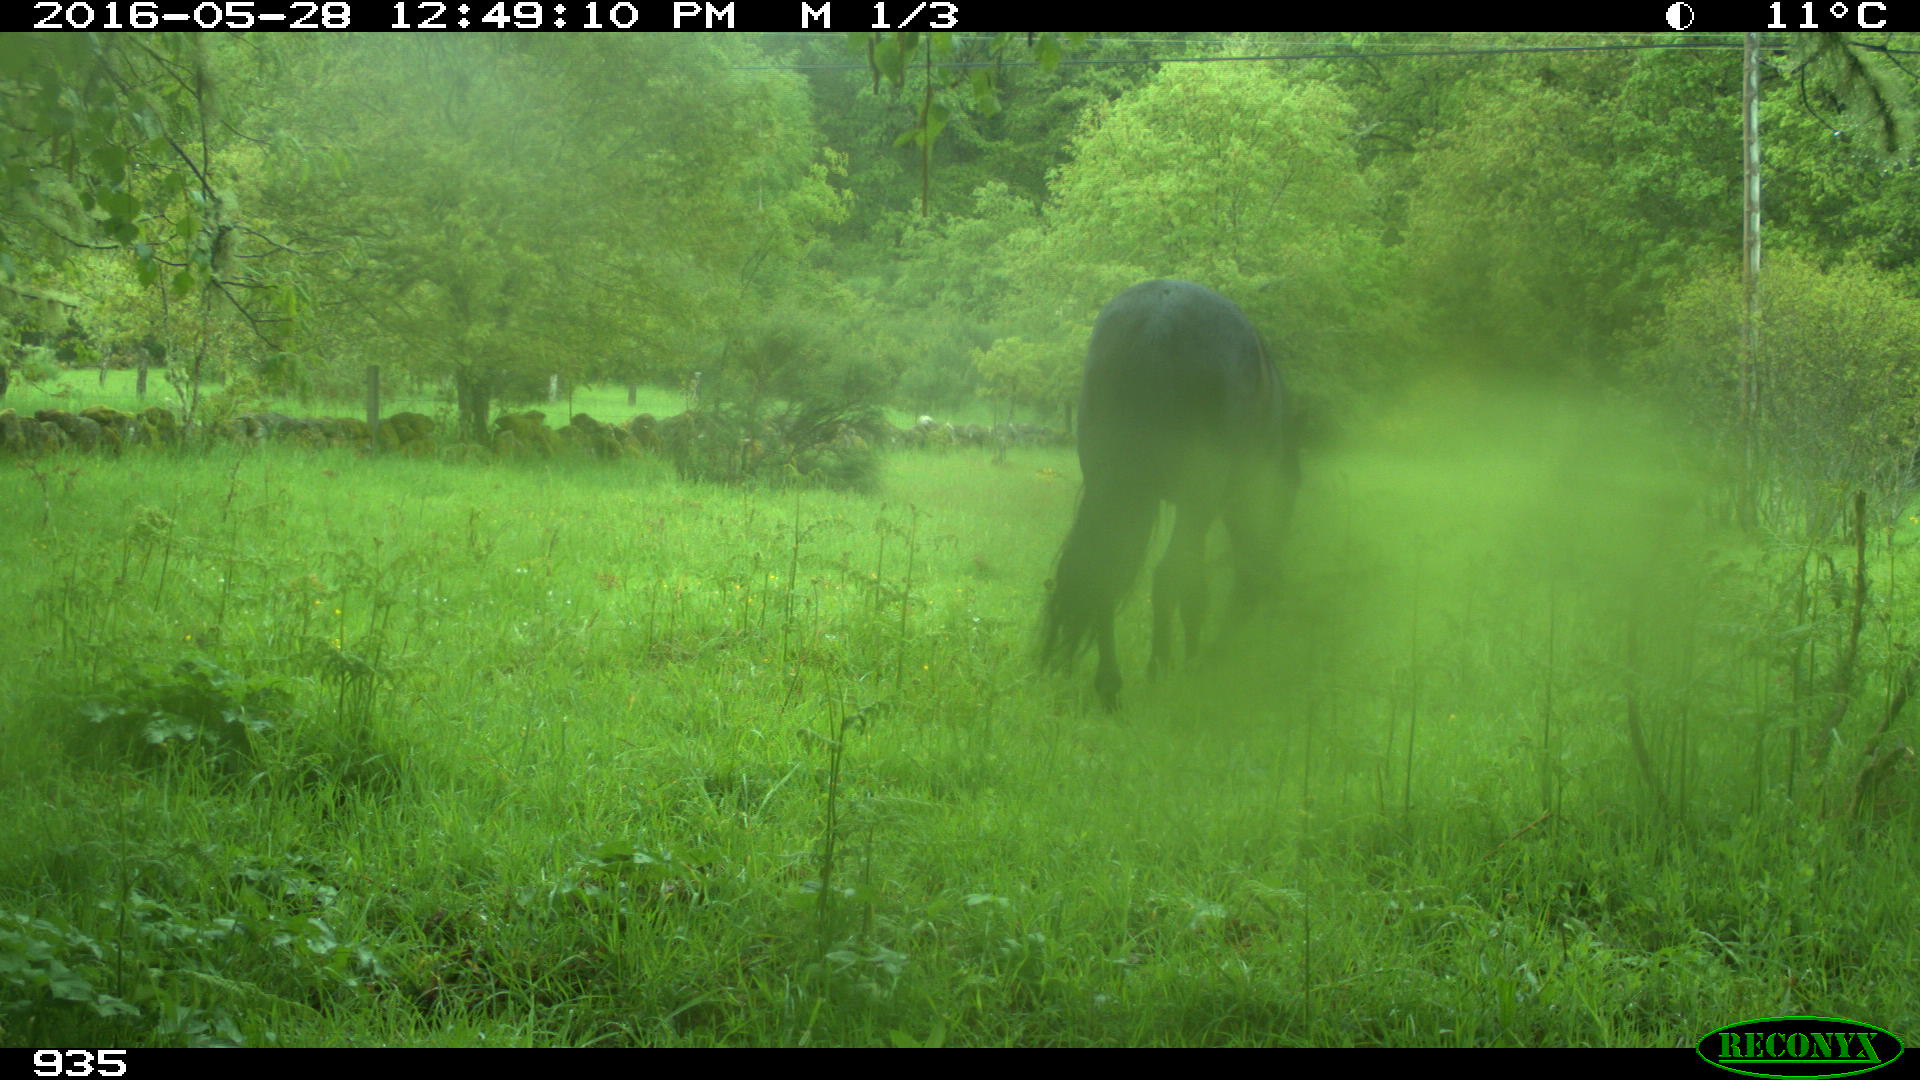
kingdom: Animalia
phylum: Chordata
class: Mammalia
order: Perissodactyla
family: Equidae
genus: Equus
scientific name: Equus caballus
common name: Horse
